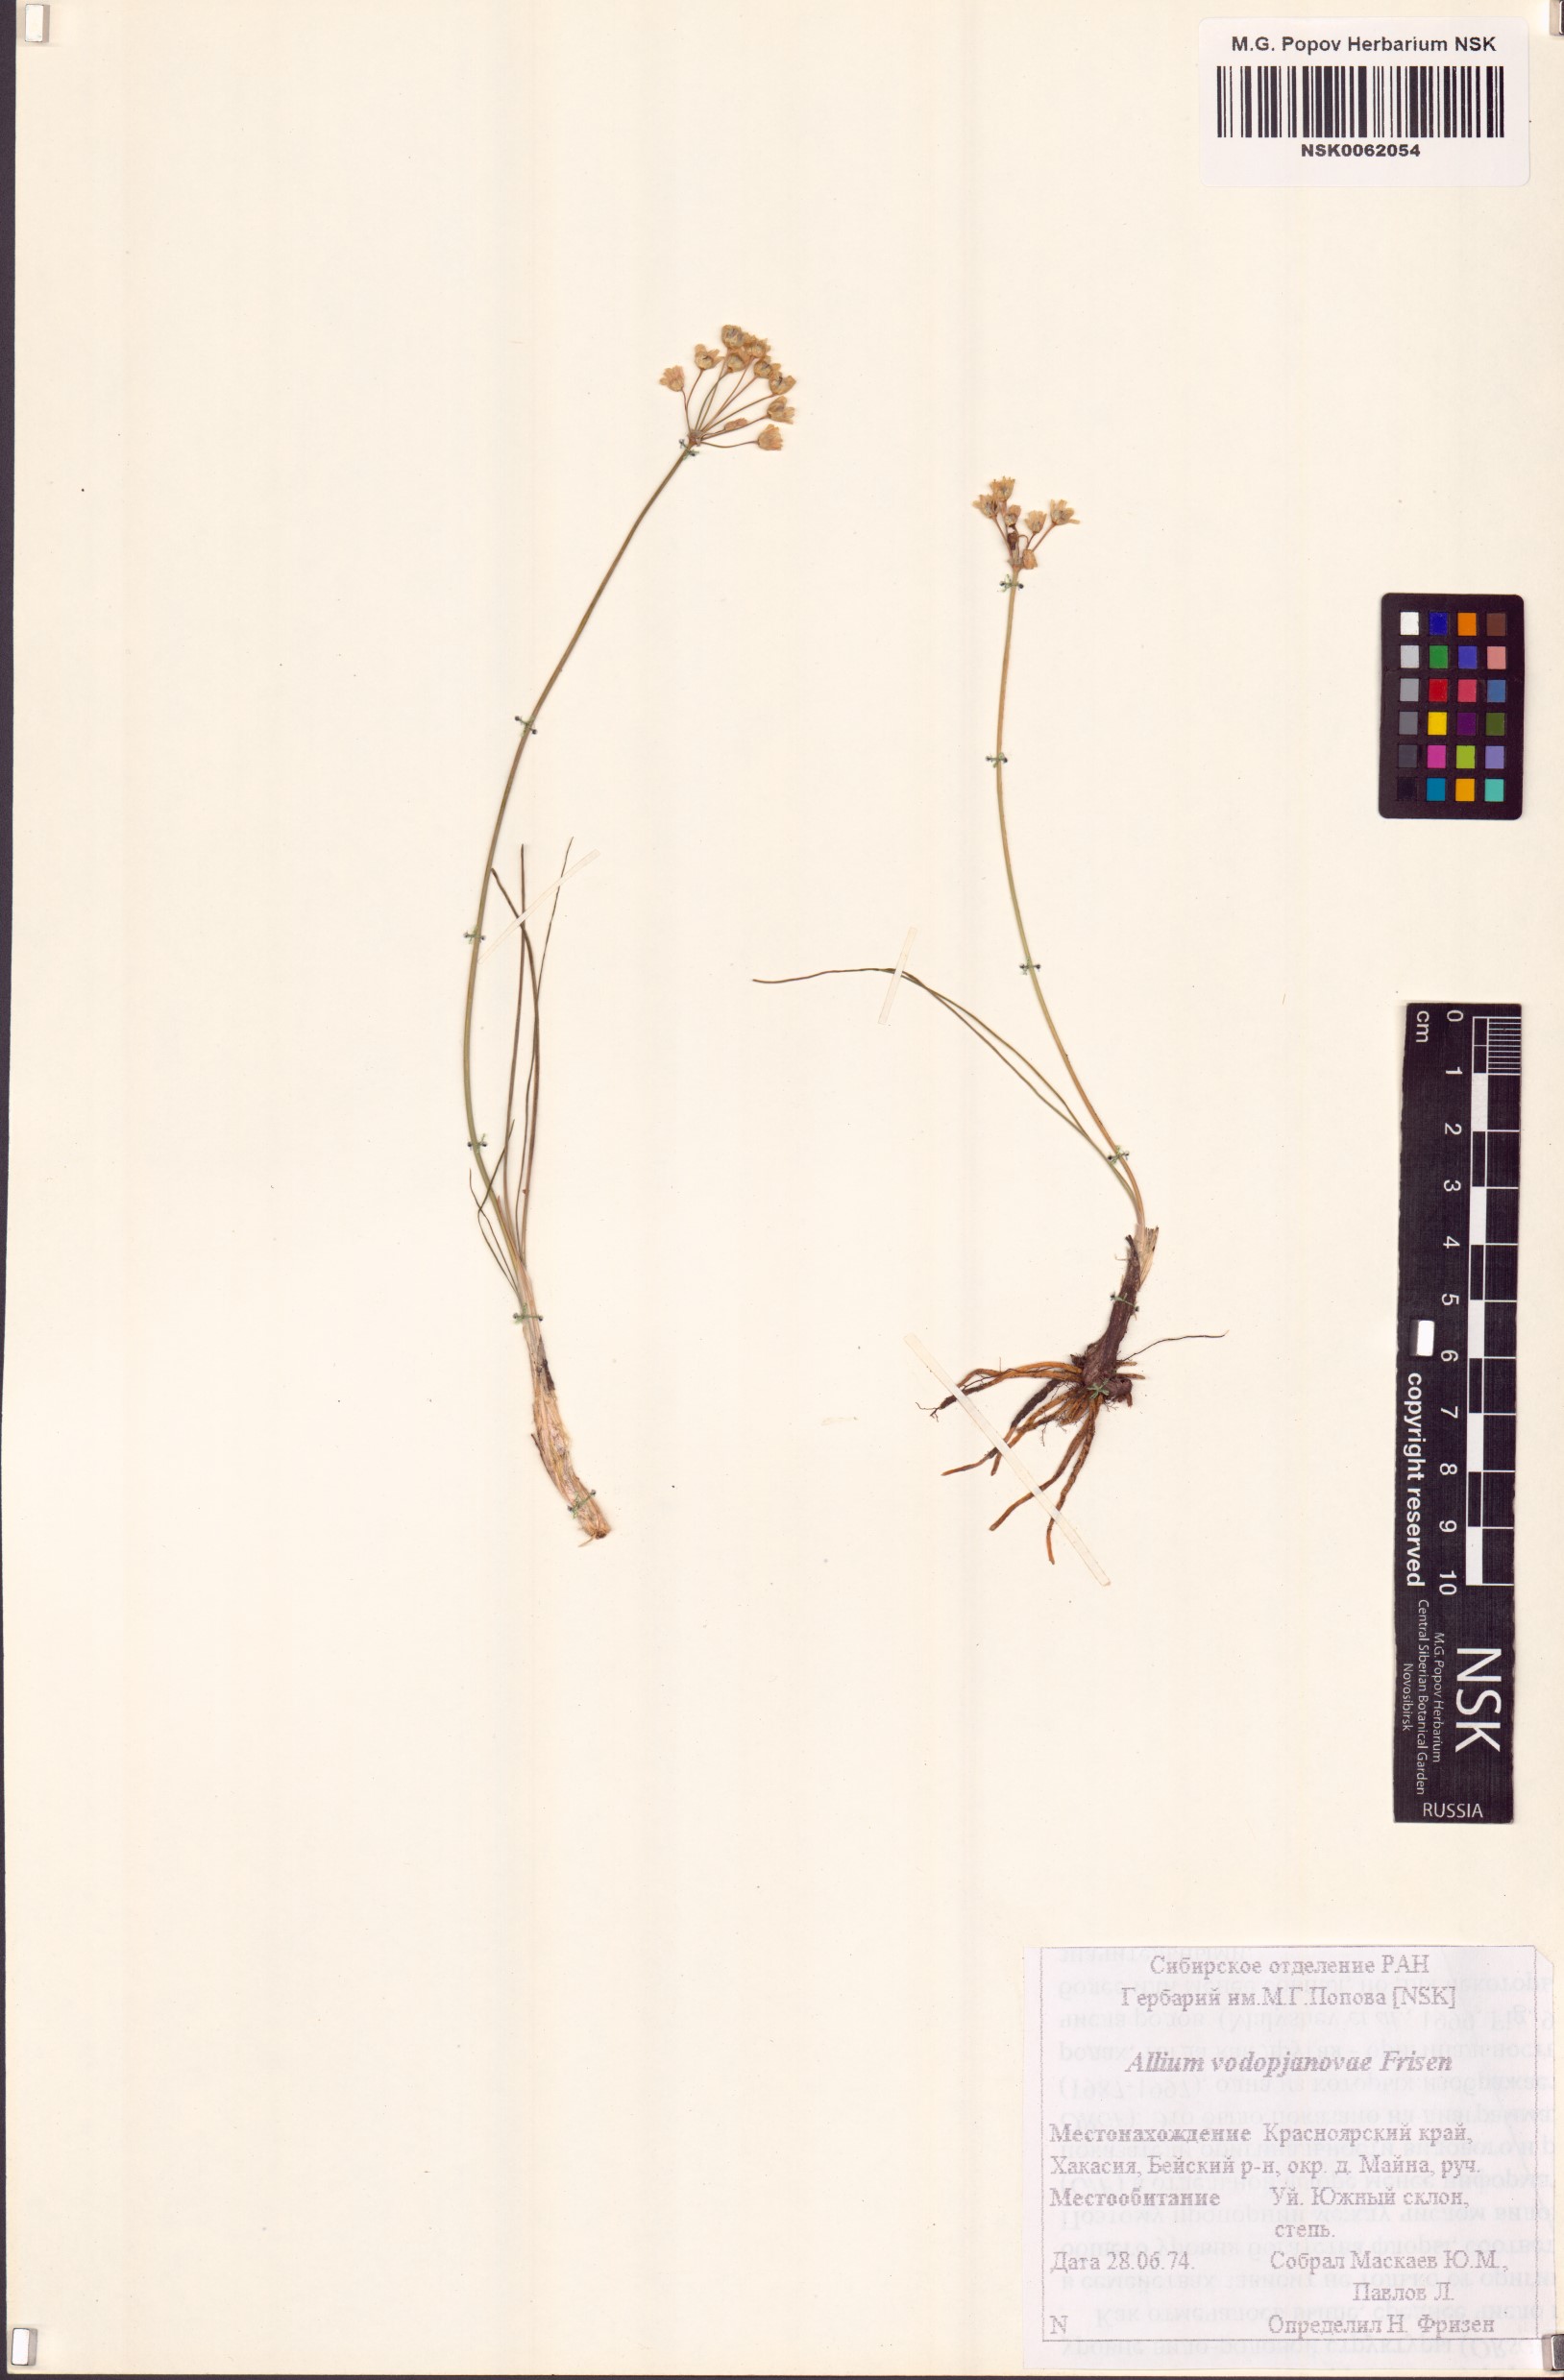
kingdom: Plantae
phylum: Tracheophyta
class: Liliopsida
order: Asparagales
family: Amaryllidaceae
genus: Allium
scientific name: Allium vodopjanovae
